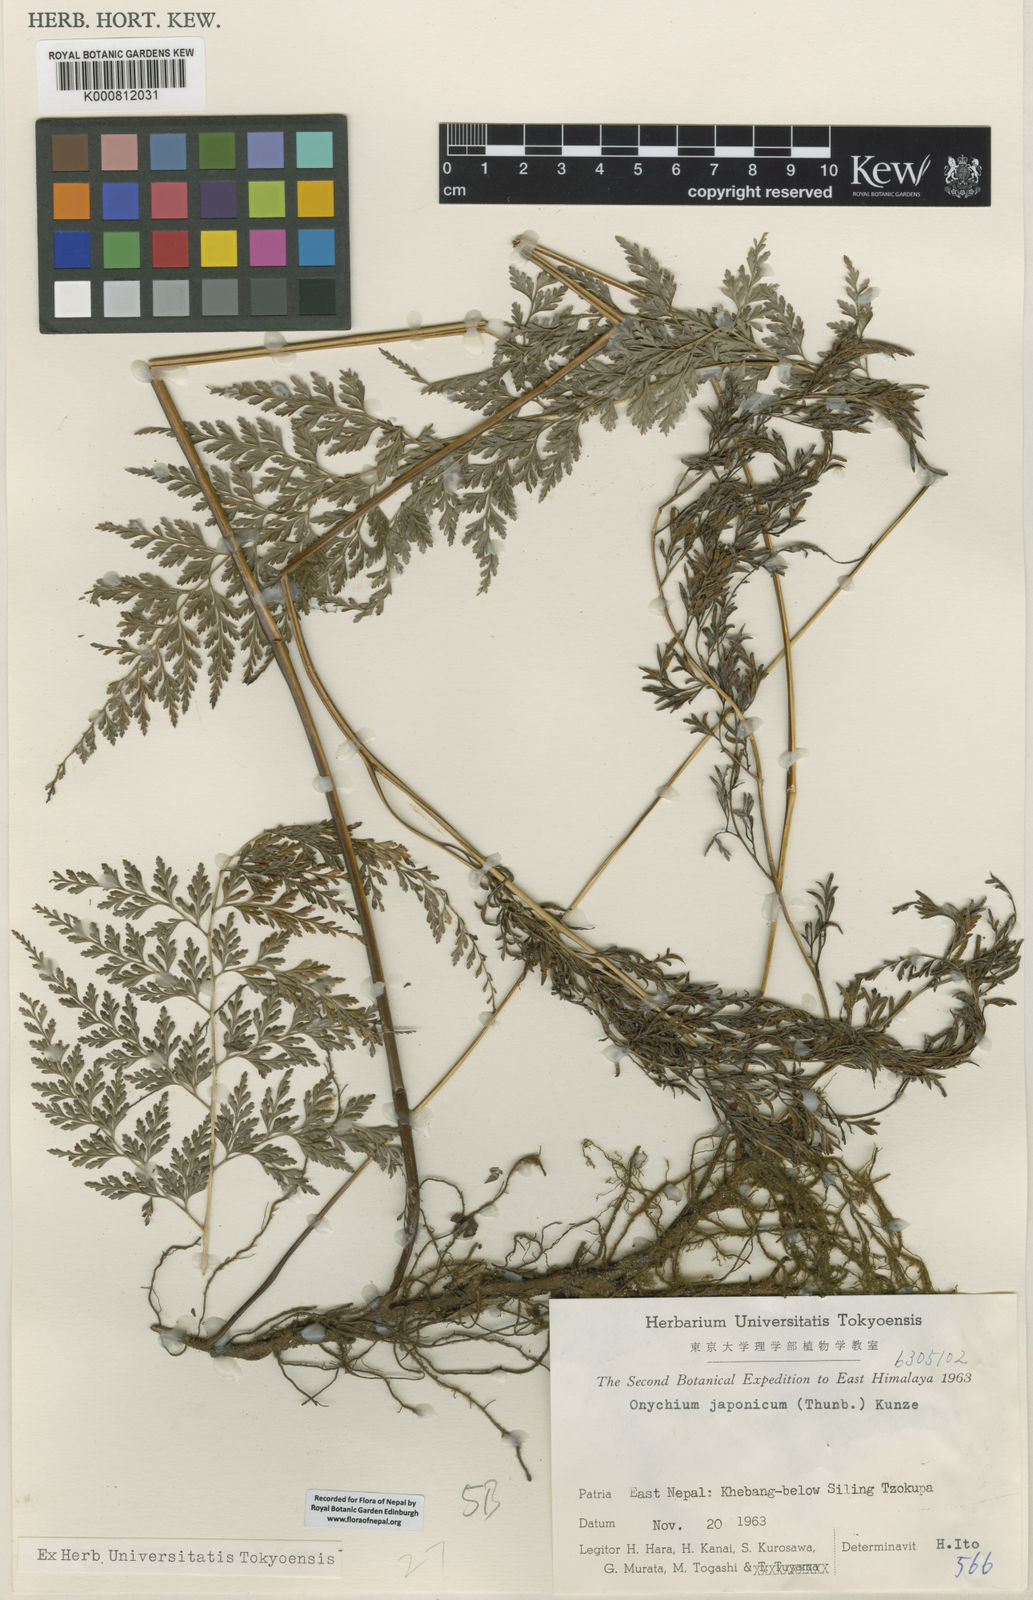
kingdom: Plantae
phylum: Tracheophyta
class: Polypodiopsida
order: Polypodiales
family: Pteridaceae
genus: Onychium
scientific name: Onychium lucidum
